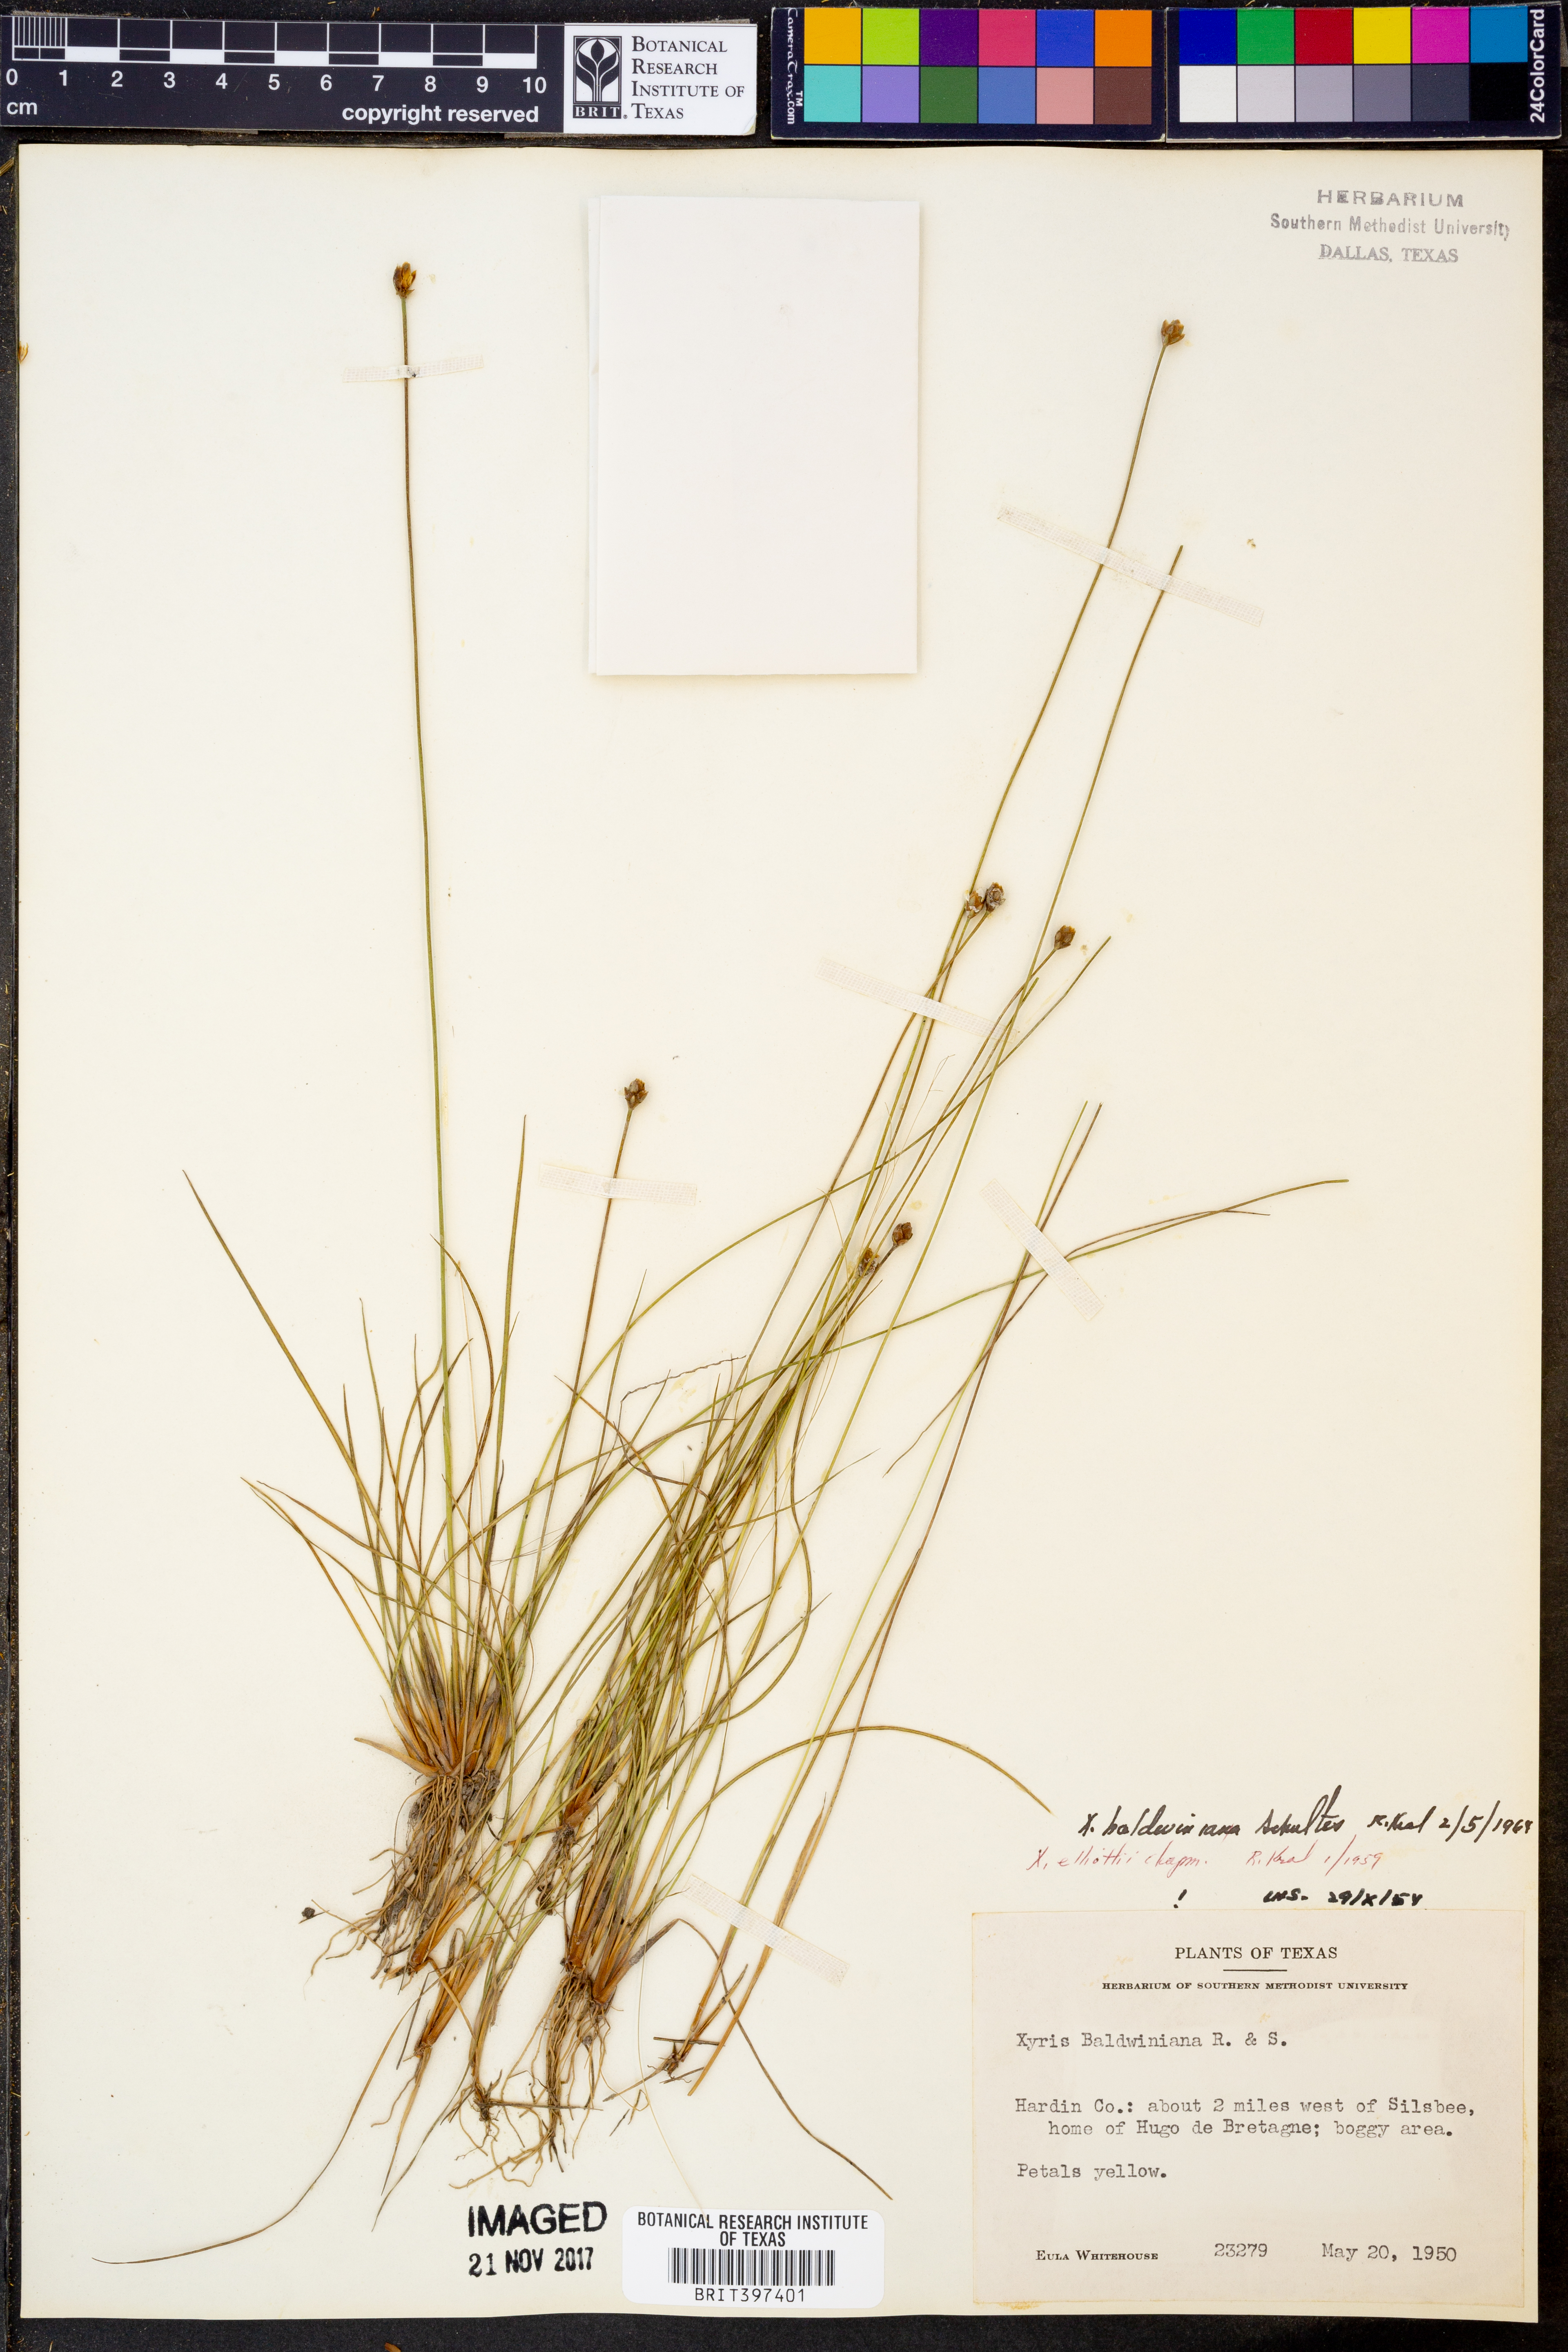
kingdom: Plantae
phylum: Tracheophyta
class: Liliopsida
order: Poales
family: Xyridaceae
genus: Xyris
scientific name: Xyris
